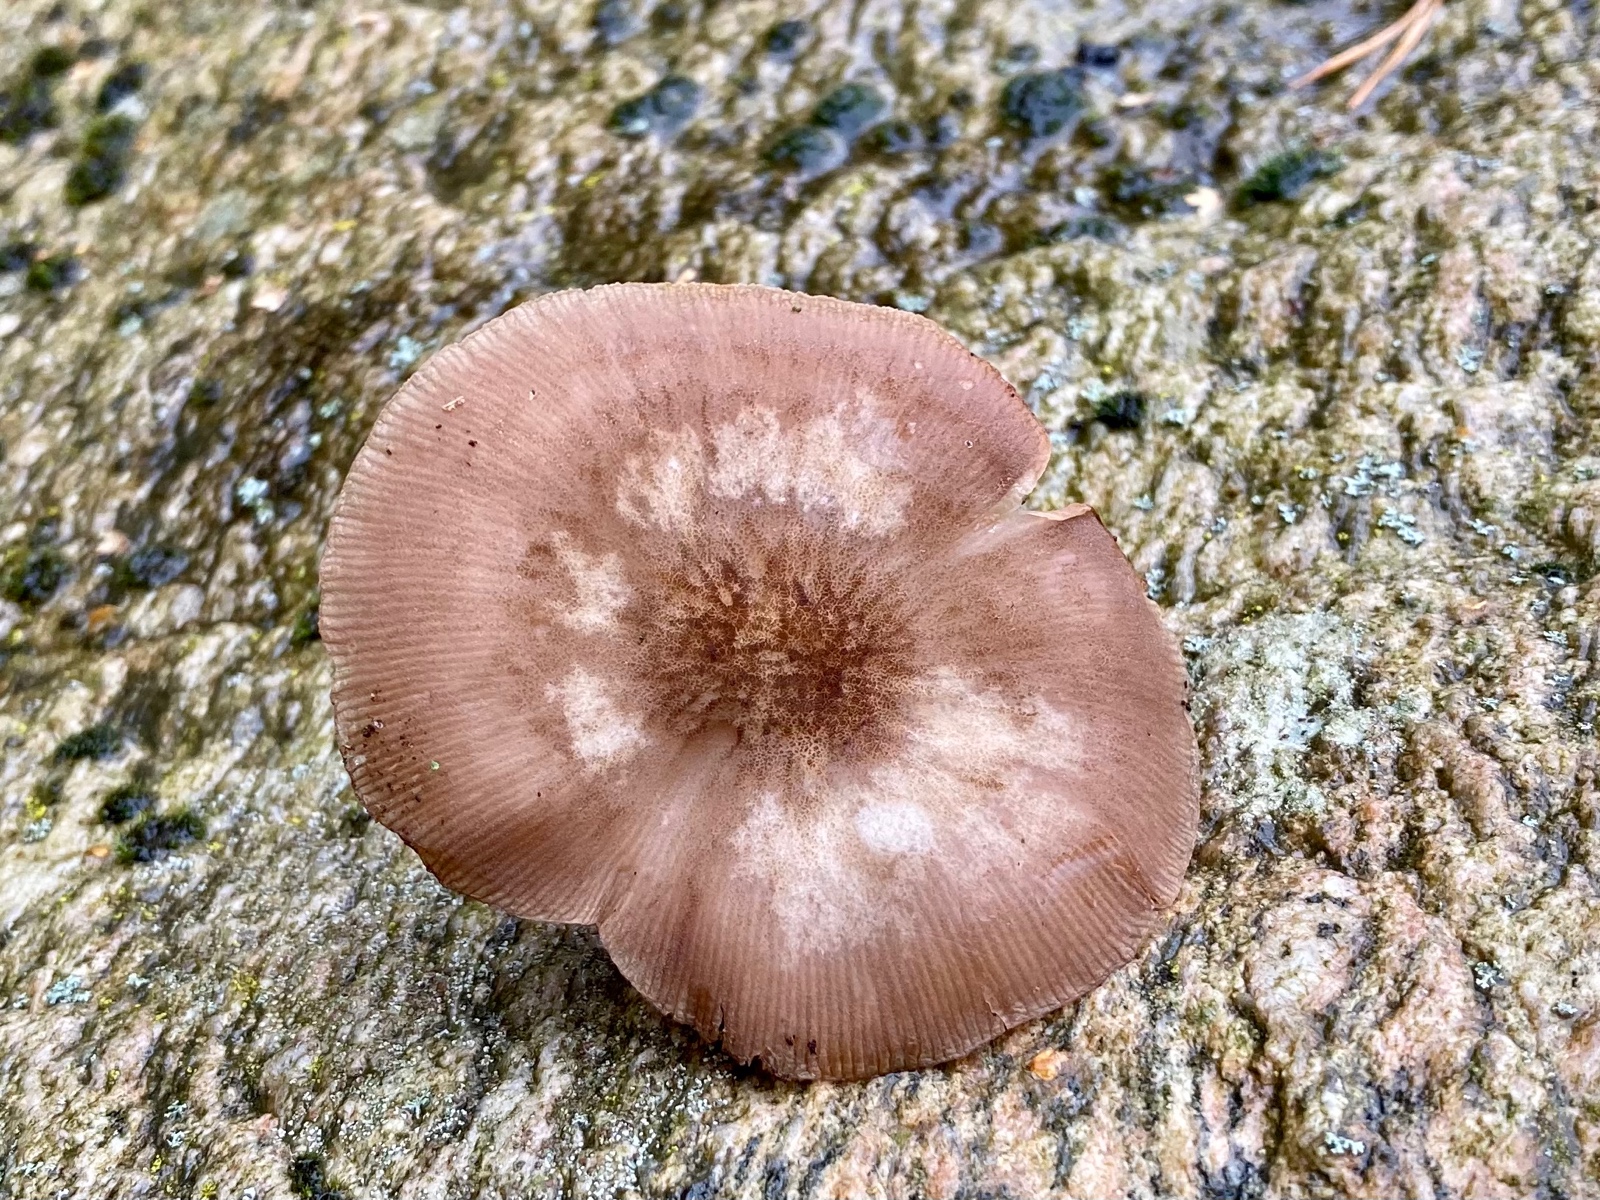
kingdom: Fungi
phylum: Basidiomycota
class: Agaricomycetes
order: Agaricales
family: Pluteaceae
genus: Pluteus
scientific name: Pluteus plautus
